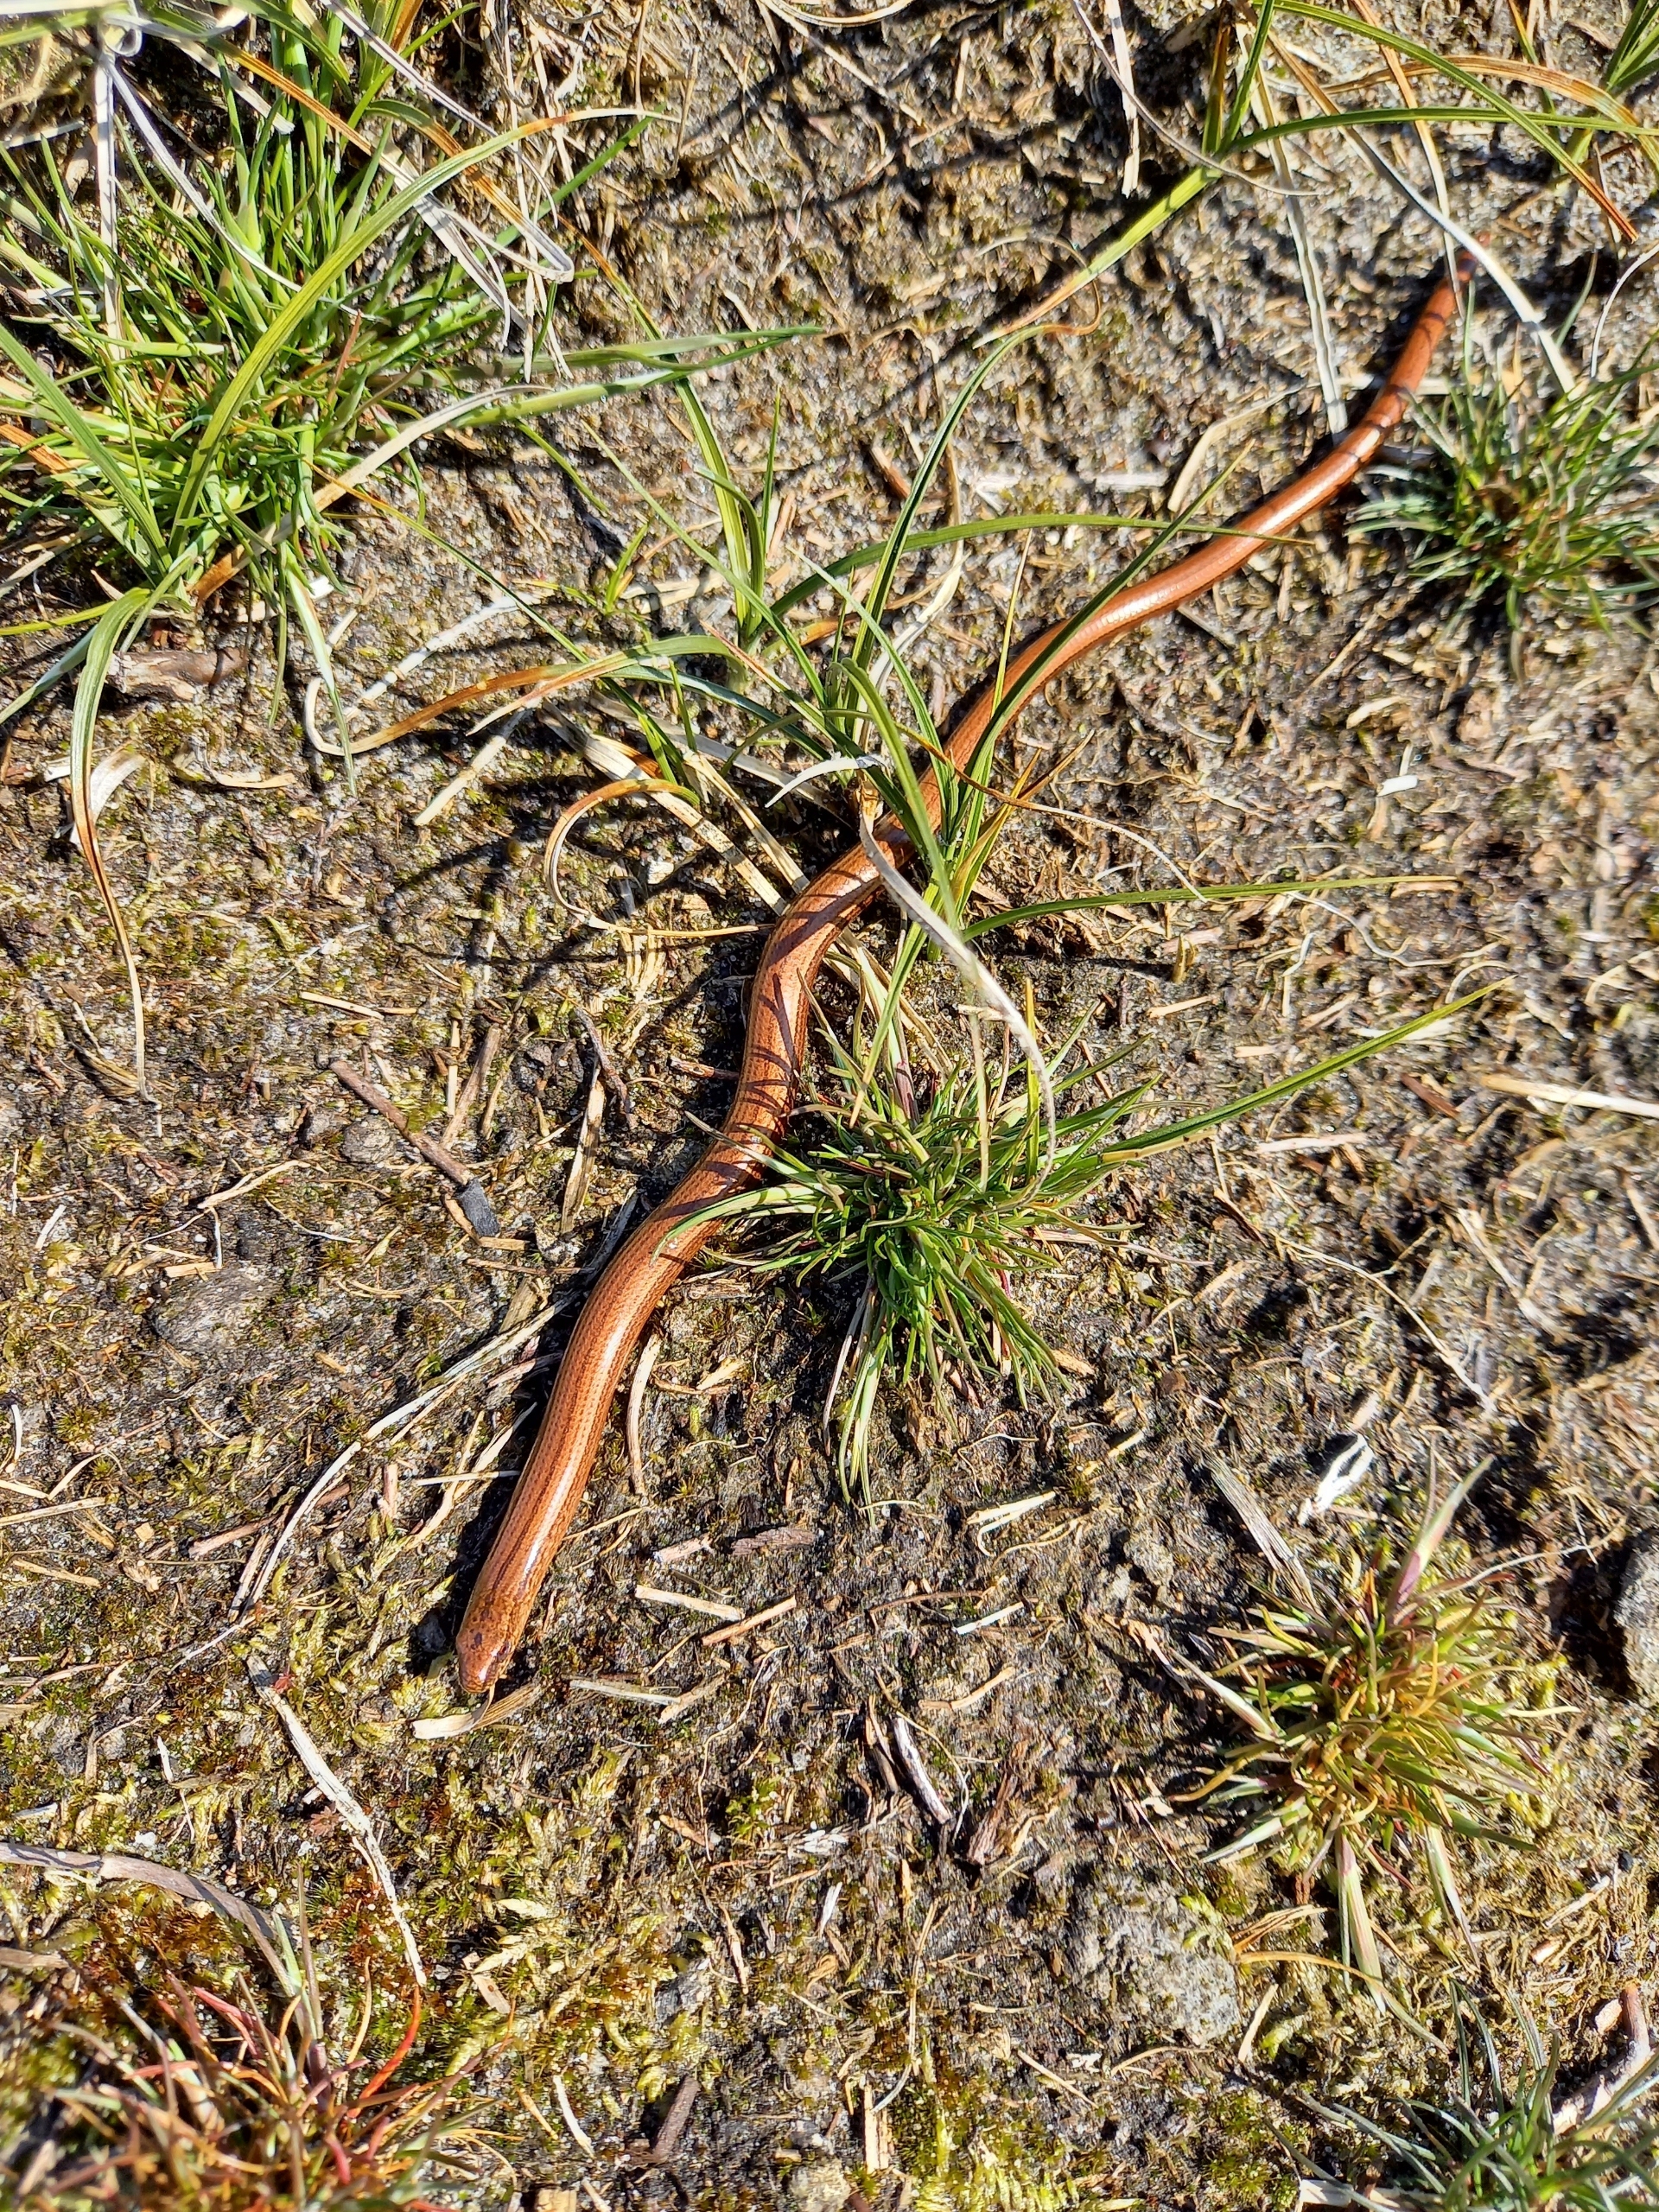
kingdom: Animalia
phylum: Chordata
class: Squamata
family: Anguidae
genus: Anguis
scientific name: Anguis fragilis
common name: Stålorm
